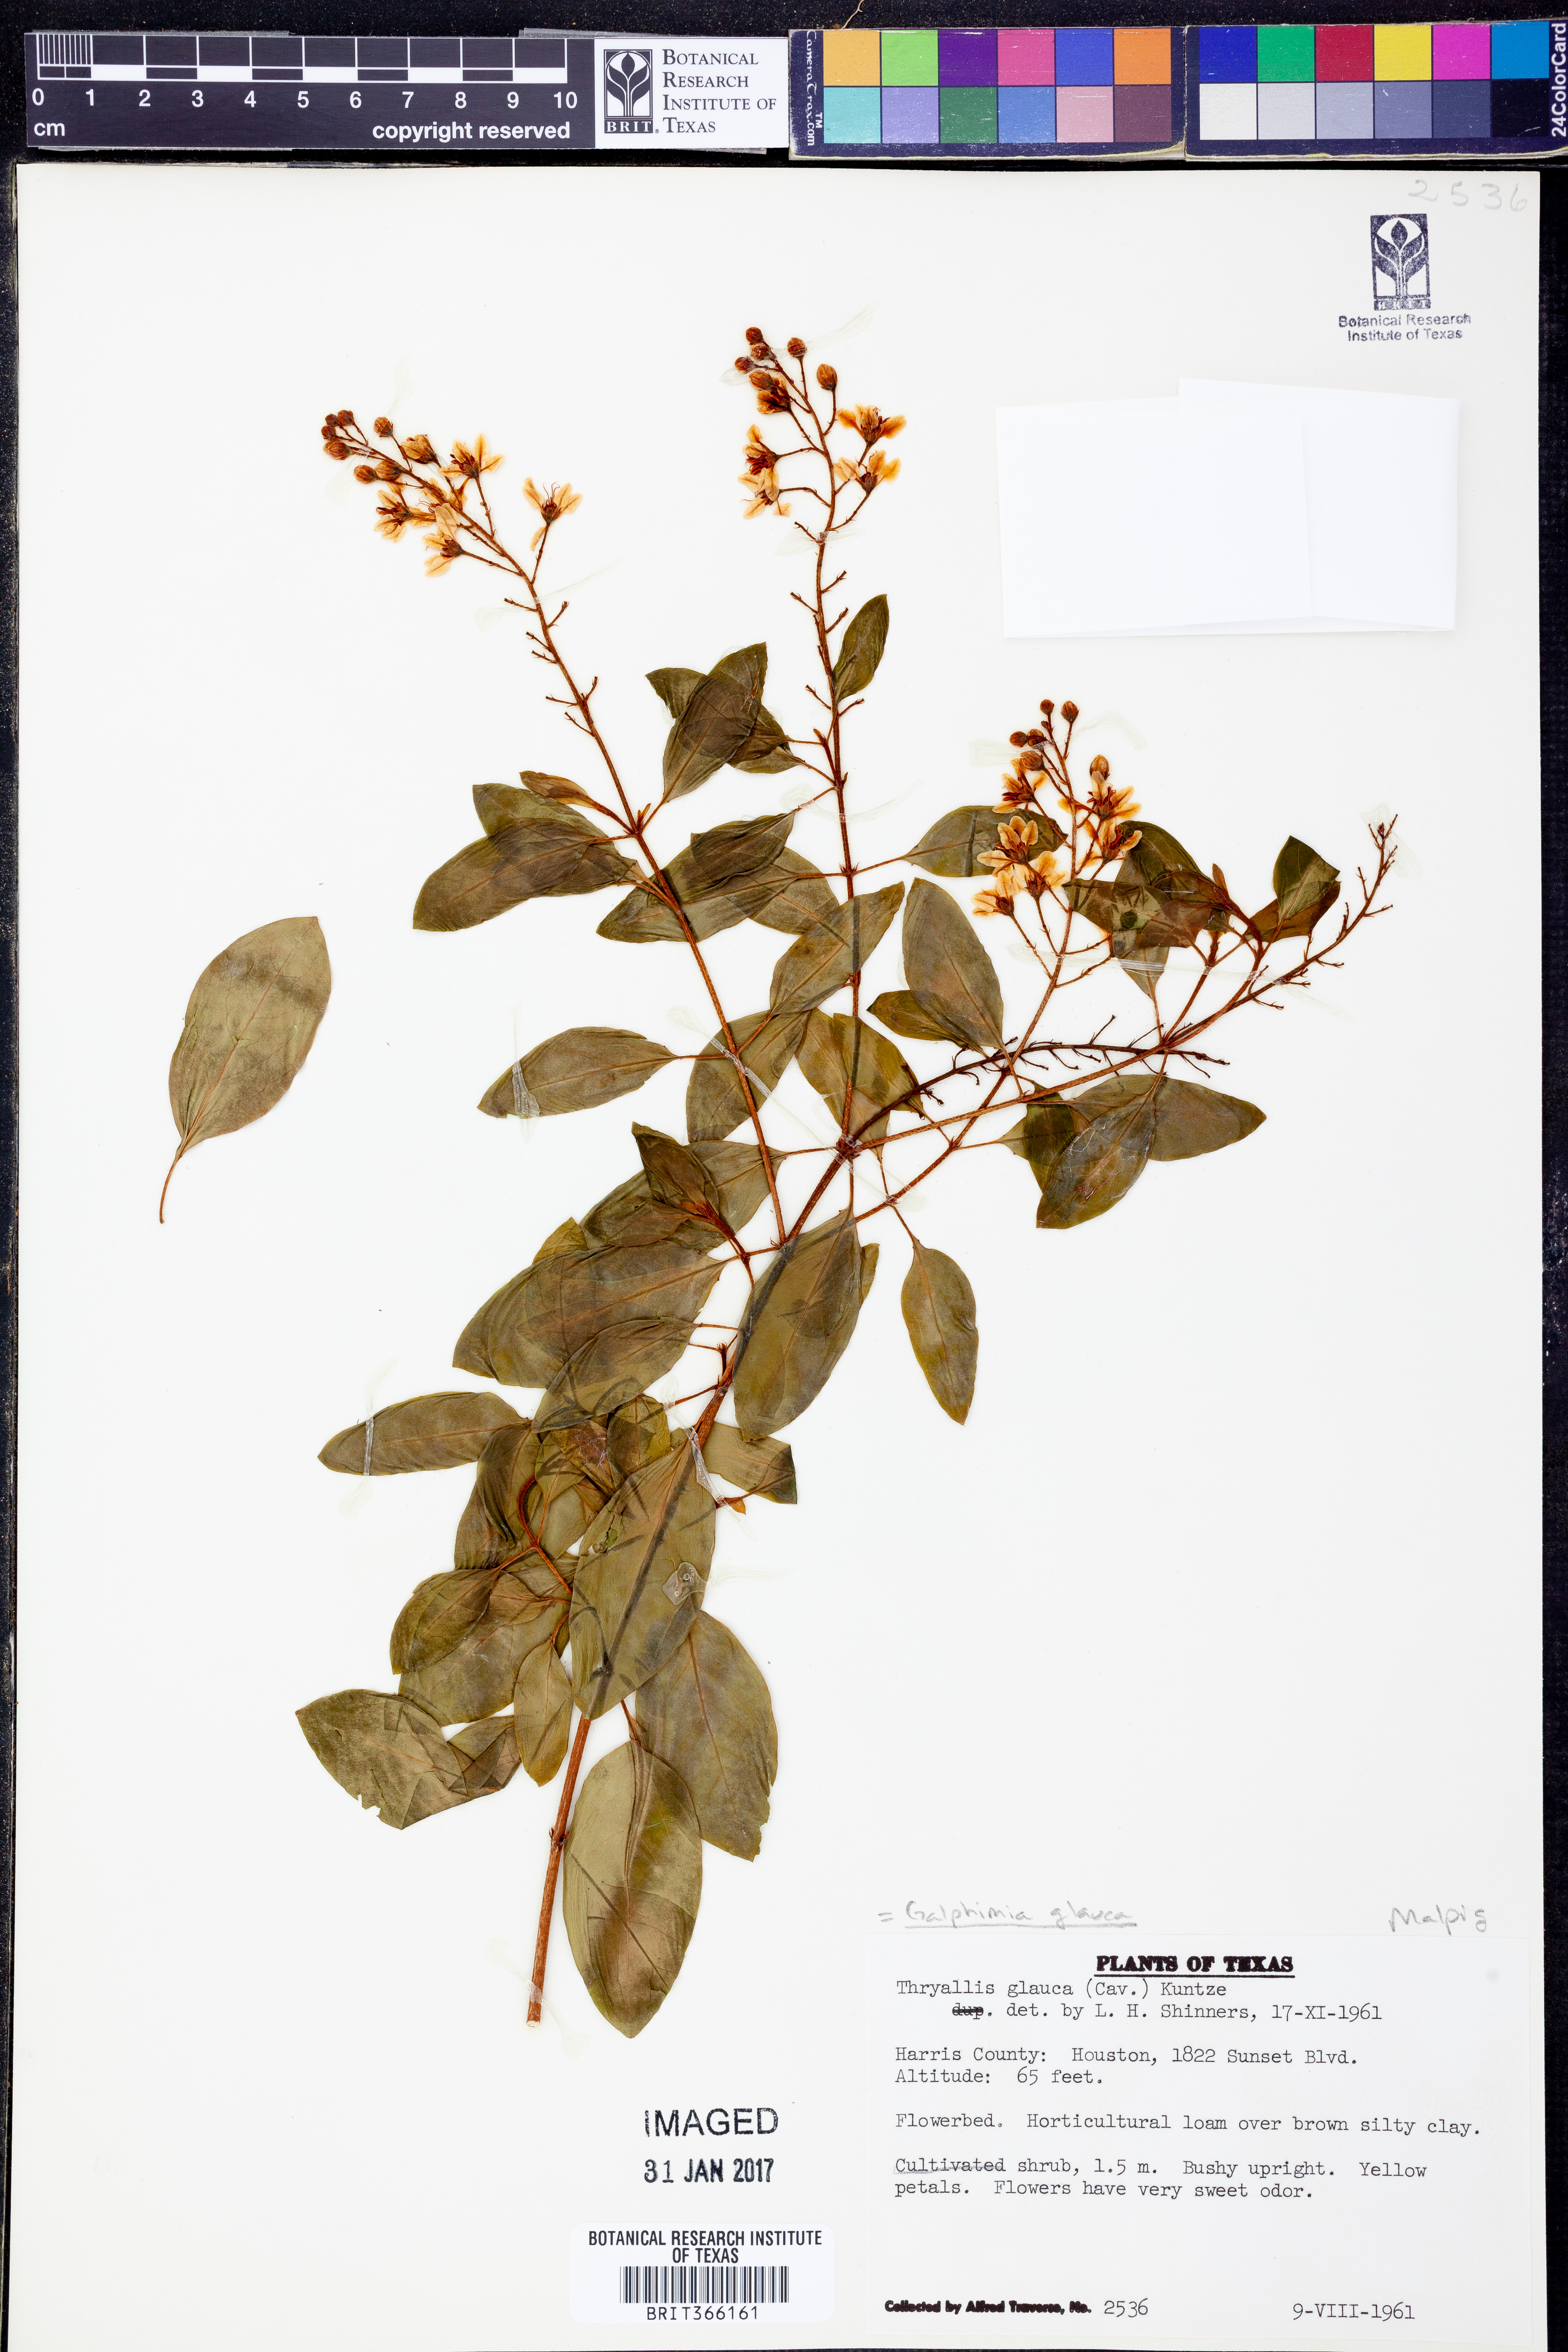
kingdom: Plantae
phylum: Tracheophyta
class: Magnoliopsida
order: Malpighiales
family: Malpighiaceae
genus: Galphimia
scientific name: Galphimia gracilis
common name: Slender goldshower
